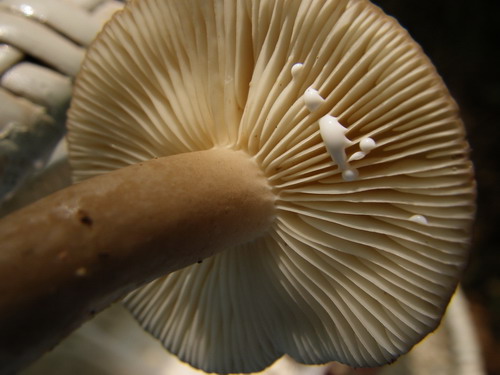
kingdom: Fungi
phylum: Basidiomycota
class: Agaricomycetes
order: Russulales
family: Russulaceae
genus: Lactarius
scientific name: Lactarius romagnesii
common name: fjernbladet mælkehat
